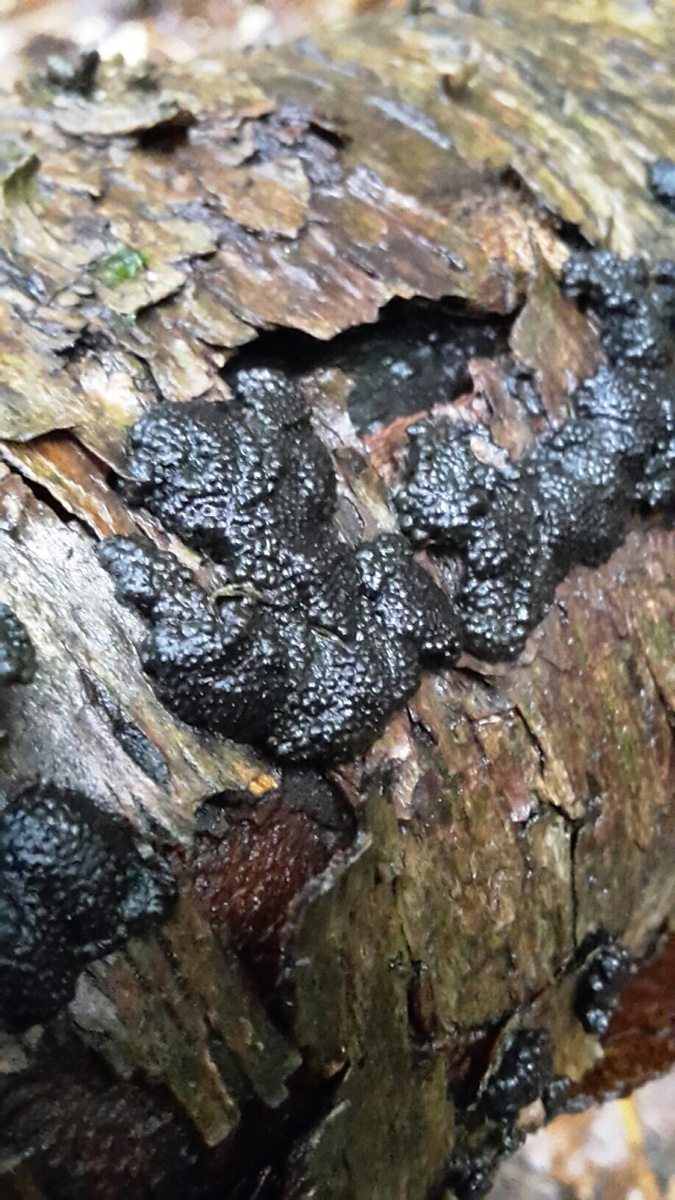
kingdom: Fungi
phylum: Ascomycota
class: Sordariomycetes
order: Xylariales
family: Hypoxylaceae
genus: Jackrogersella
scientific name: Jackrogersella multiformis
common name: foranderlig kulbær
